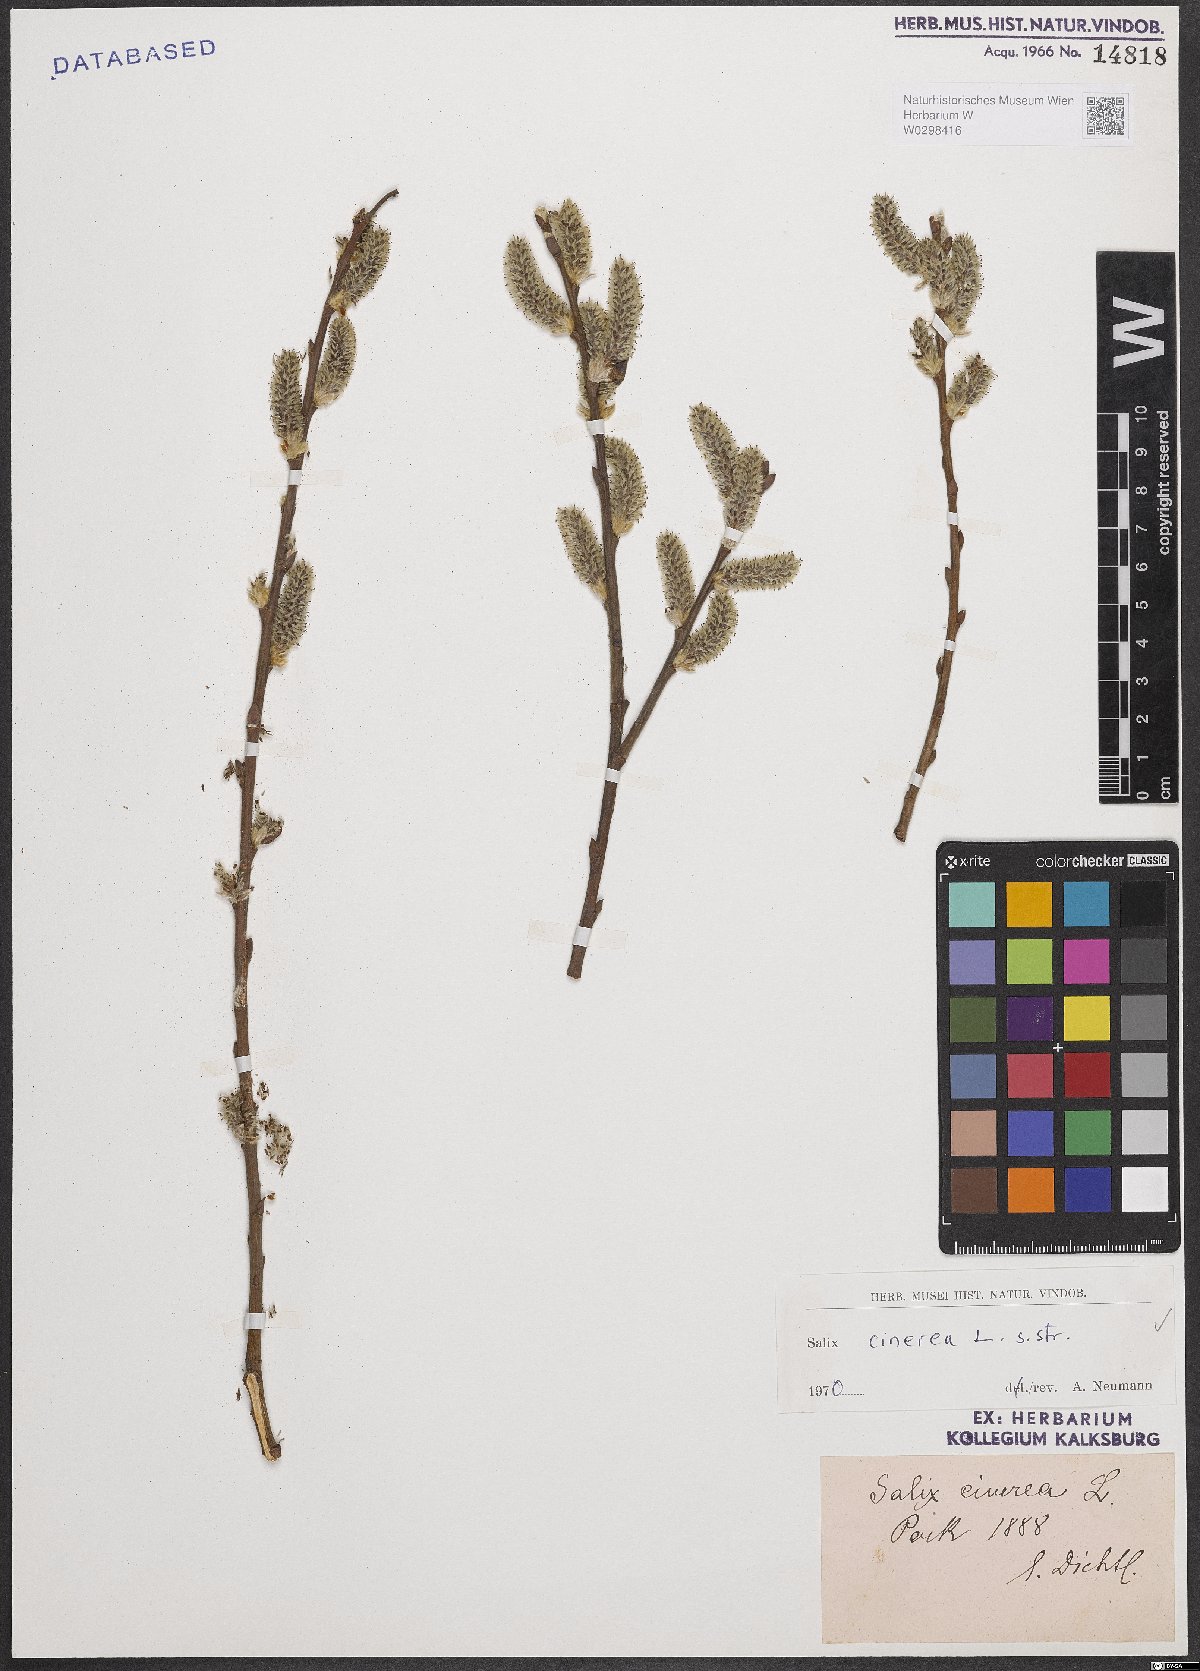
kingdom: Plantae
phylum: Tracheophyta
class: Magnoliopsida
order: Malpighiales
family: Salicaceae
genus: Salix
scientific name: Salix cinerea
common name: Common sallow
